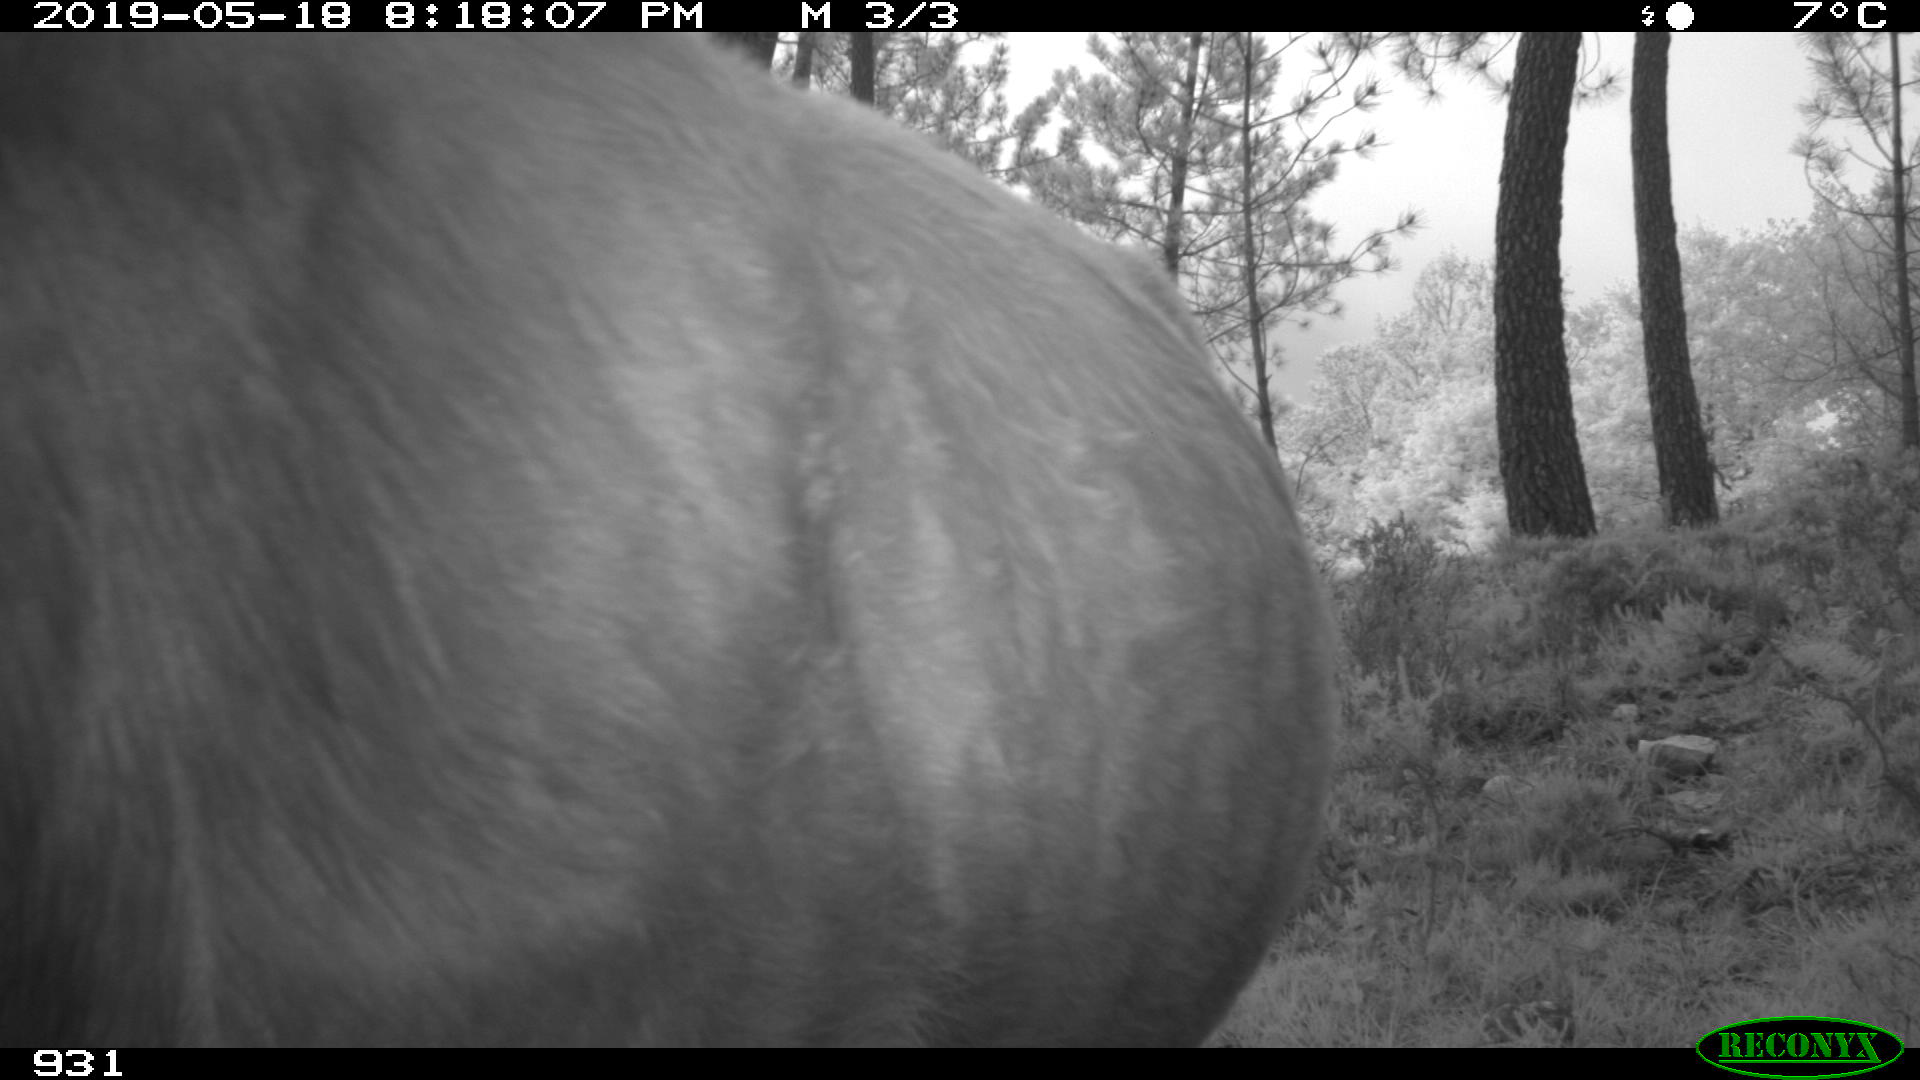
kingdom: Animalia
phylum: Chordata
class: Mammalia
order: Artiodactyla
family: Bovidae
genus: Bos
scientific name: Bos taurus
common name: Domesticated cattle
